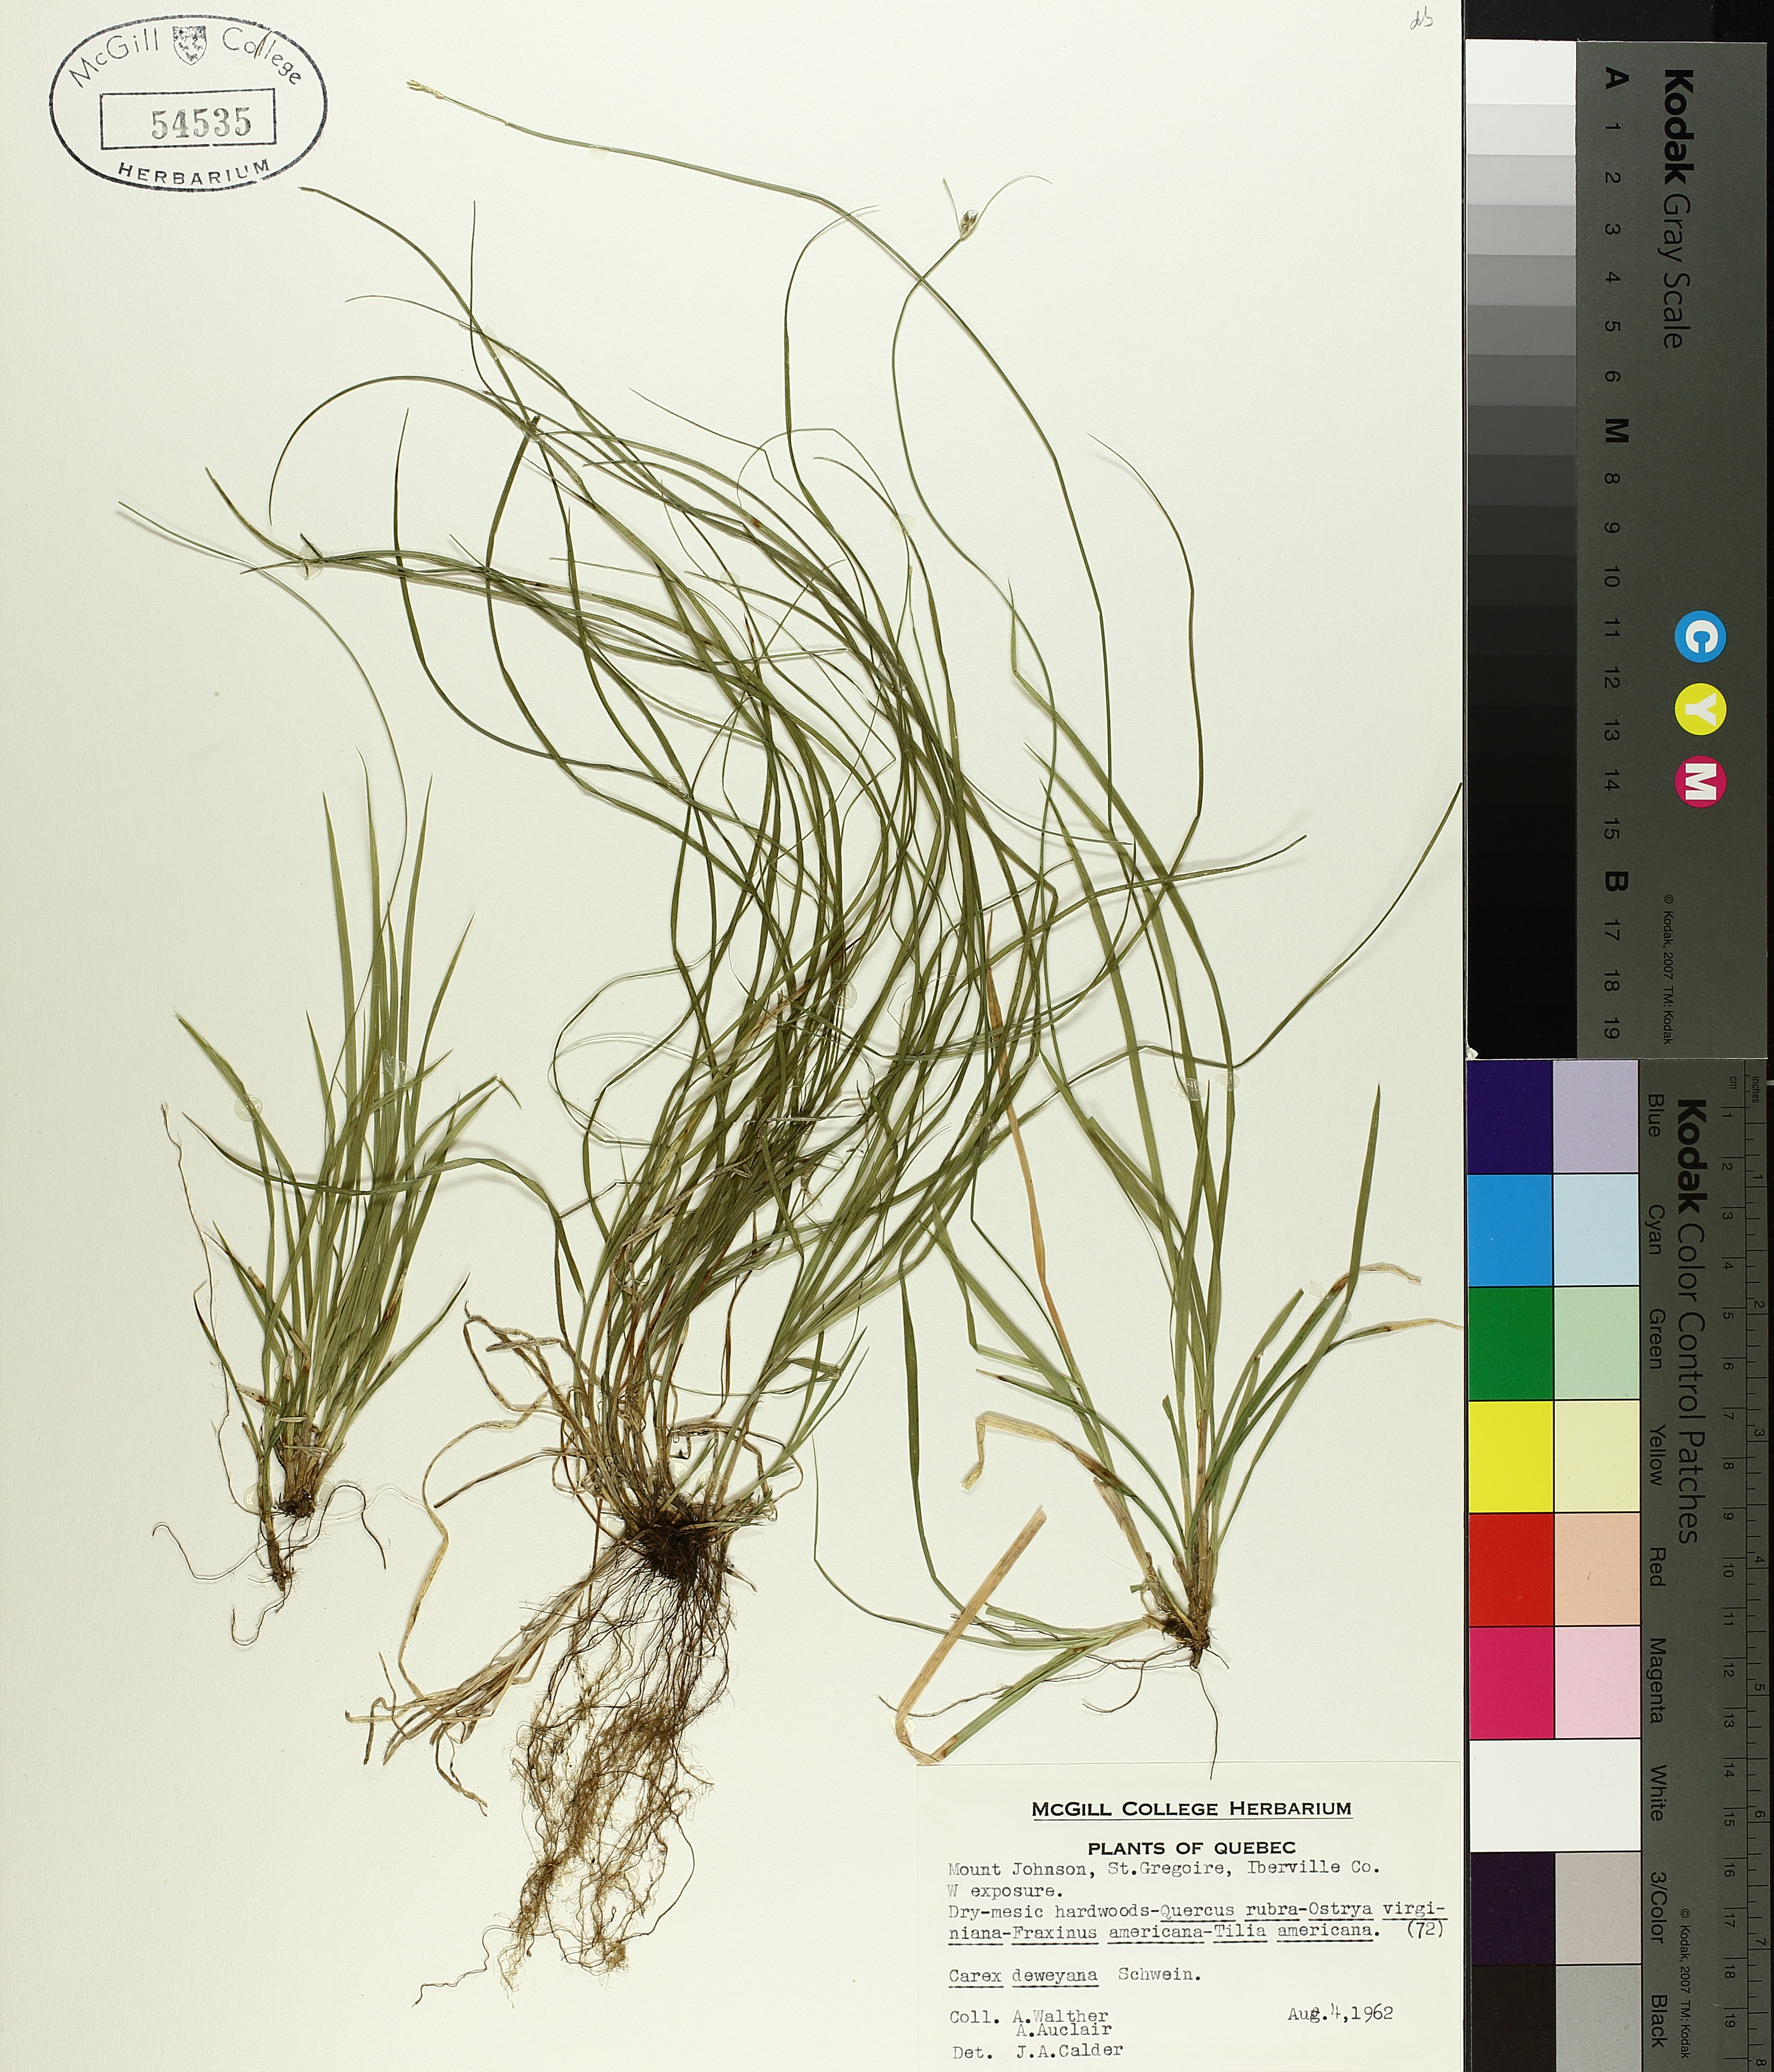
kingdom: Plantae
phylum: Tracheophyta
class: Liliopsida
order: Poales
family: Cyperaceae
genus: Carex
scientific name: Carex deweyana
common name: Dewey's sedge
